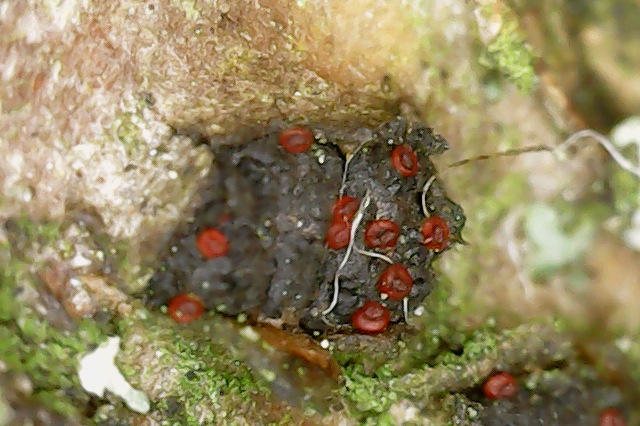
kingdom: Fungi
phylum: Ascomycota
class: Sordariomycetes
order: Hypocreales
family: Nectriaceae
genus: Dialonectria
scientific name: Dialonectria diatrypellicola
